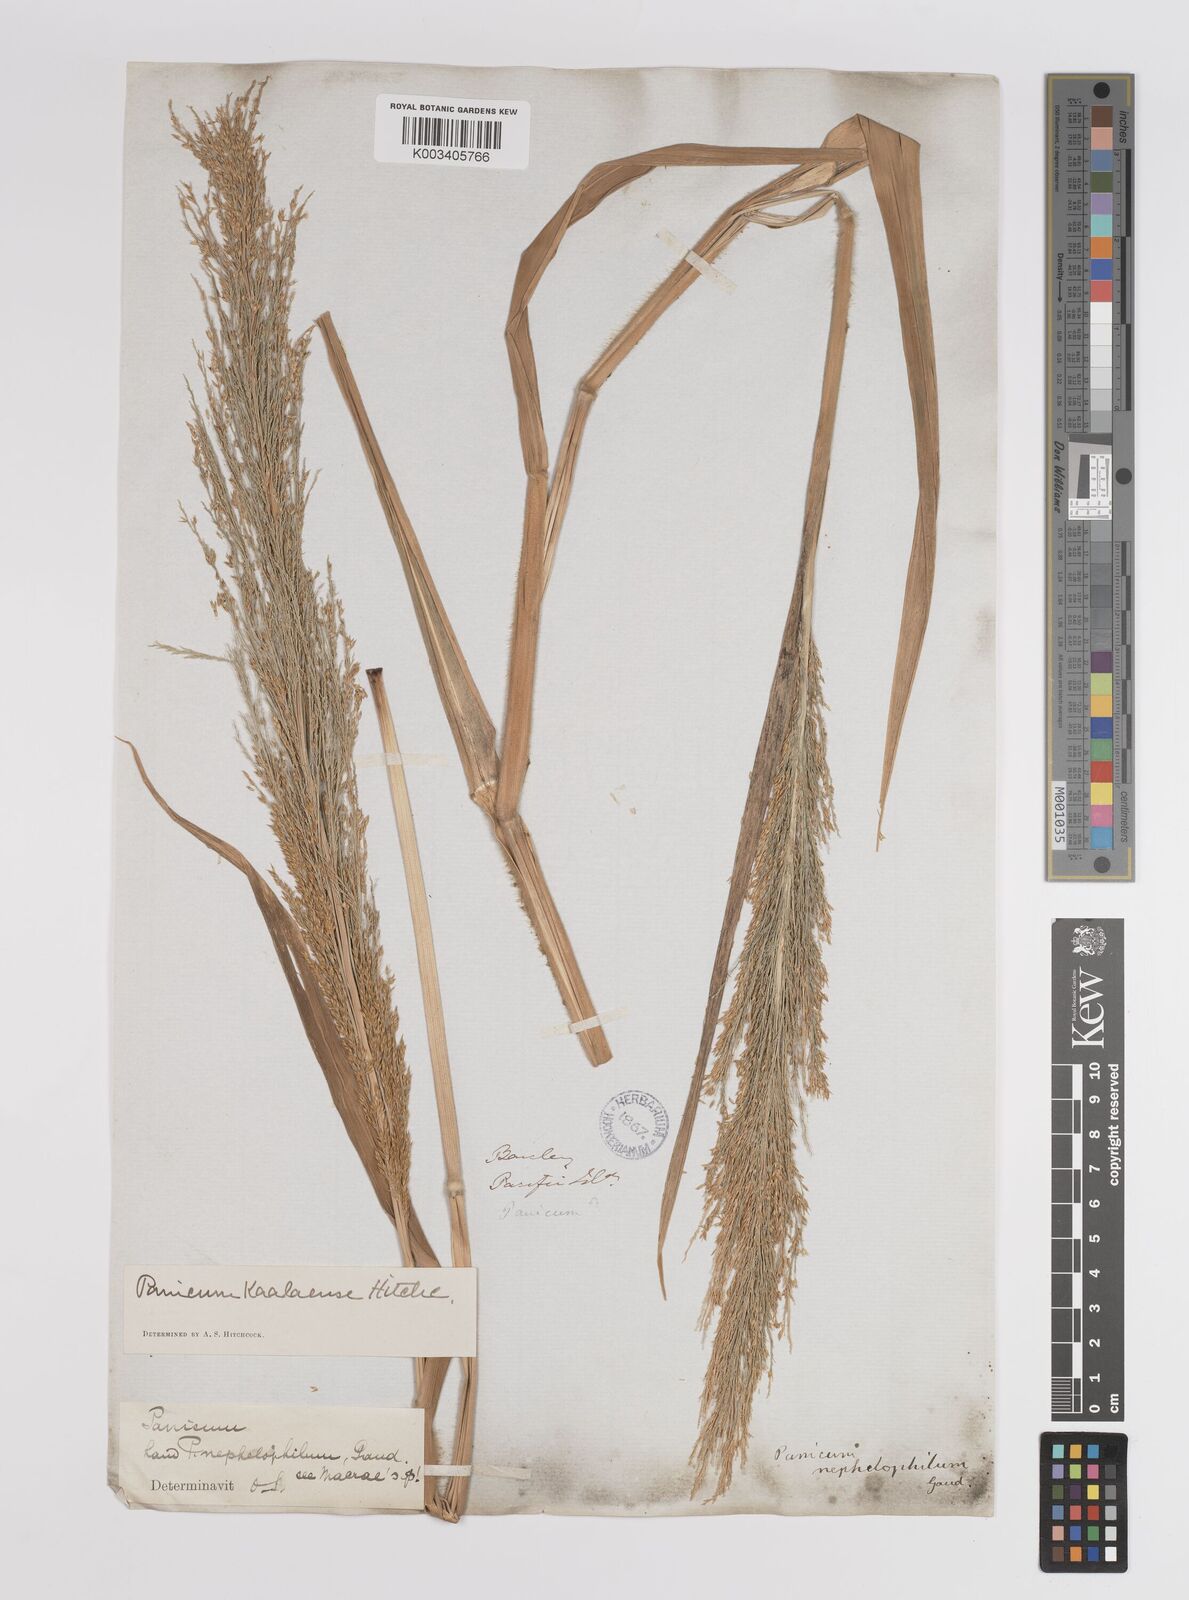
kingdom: Plantae
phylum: Tracheophyta
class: Liliopsida
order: Poales
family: Poaceae
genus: Panicum
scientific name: Panicum niihauense
